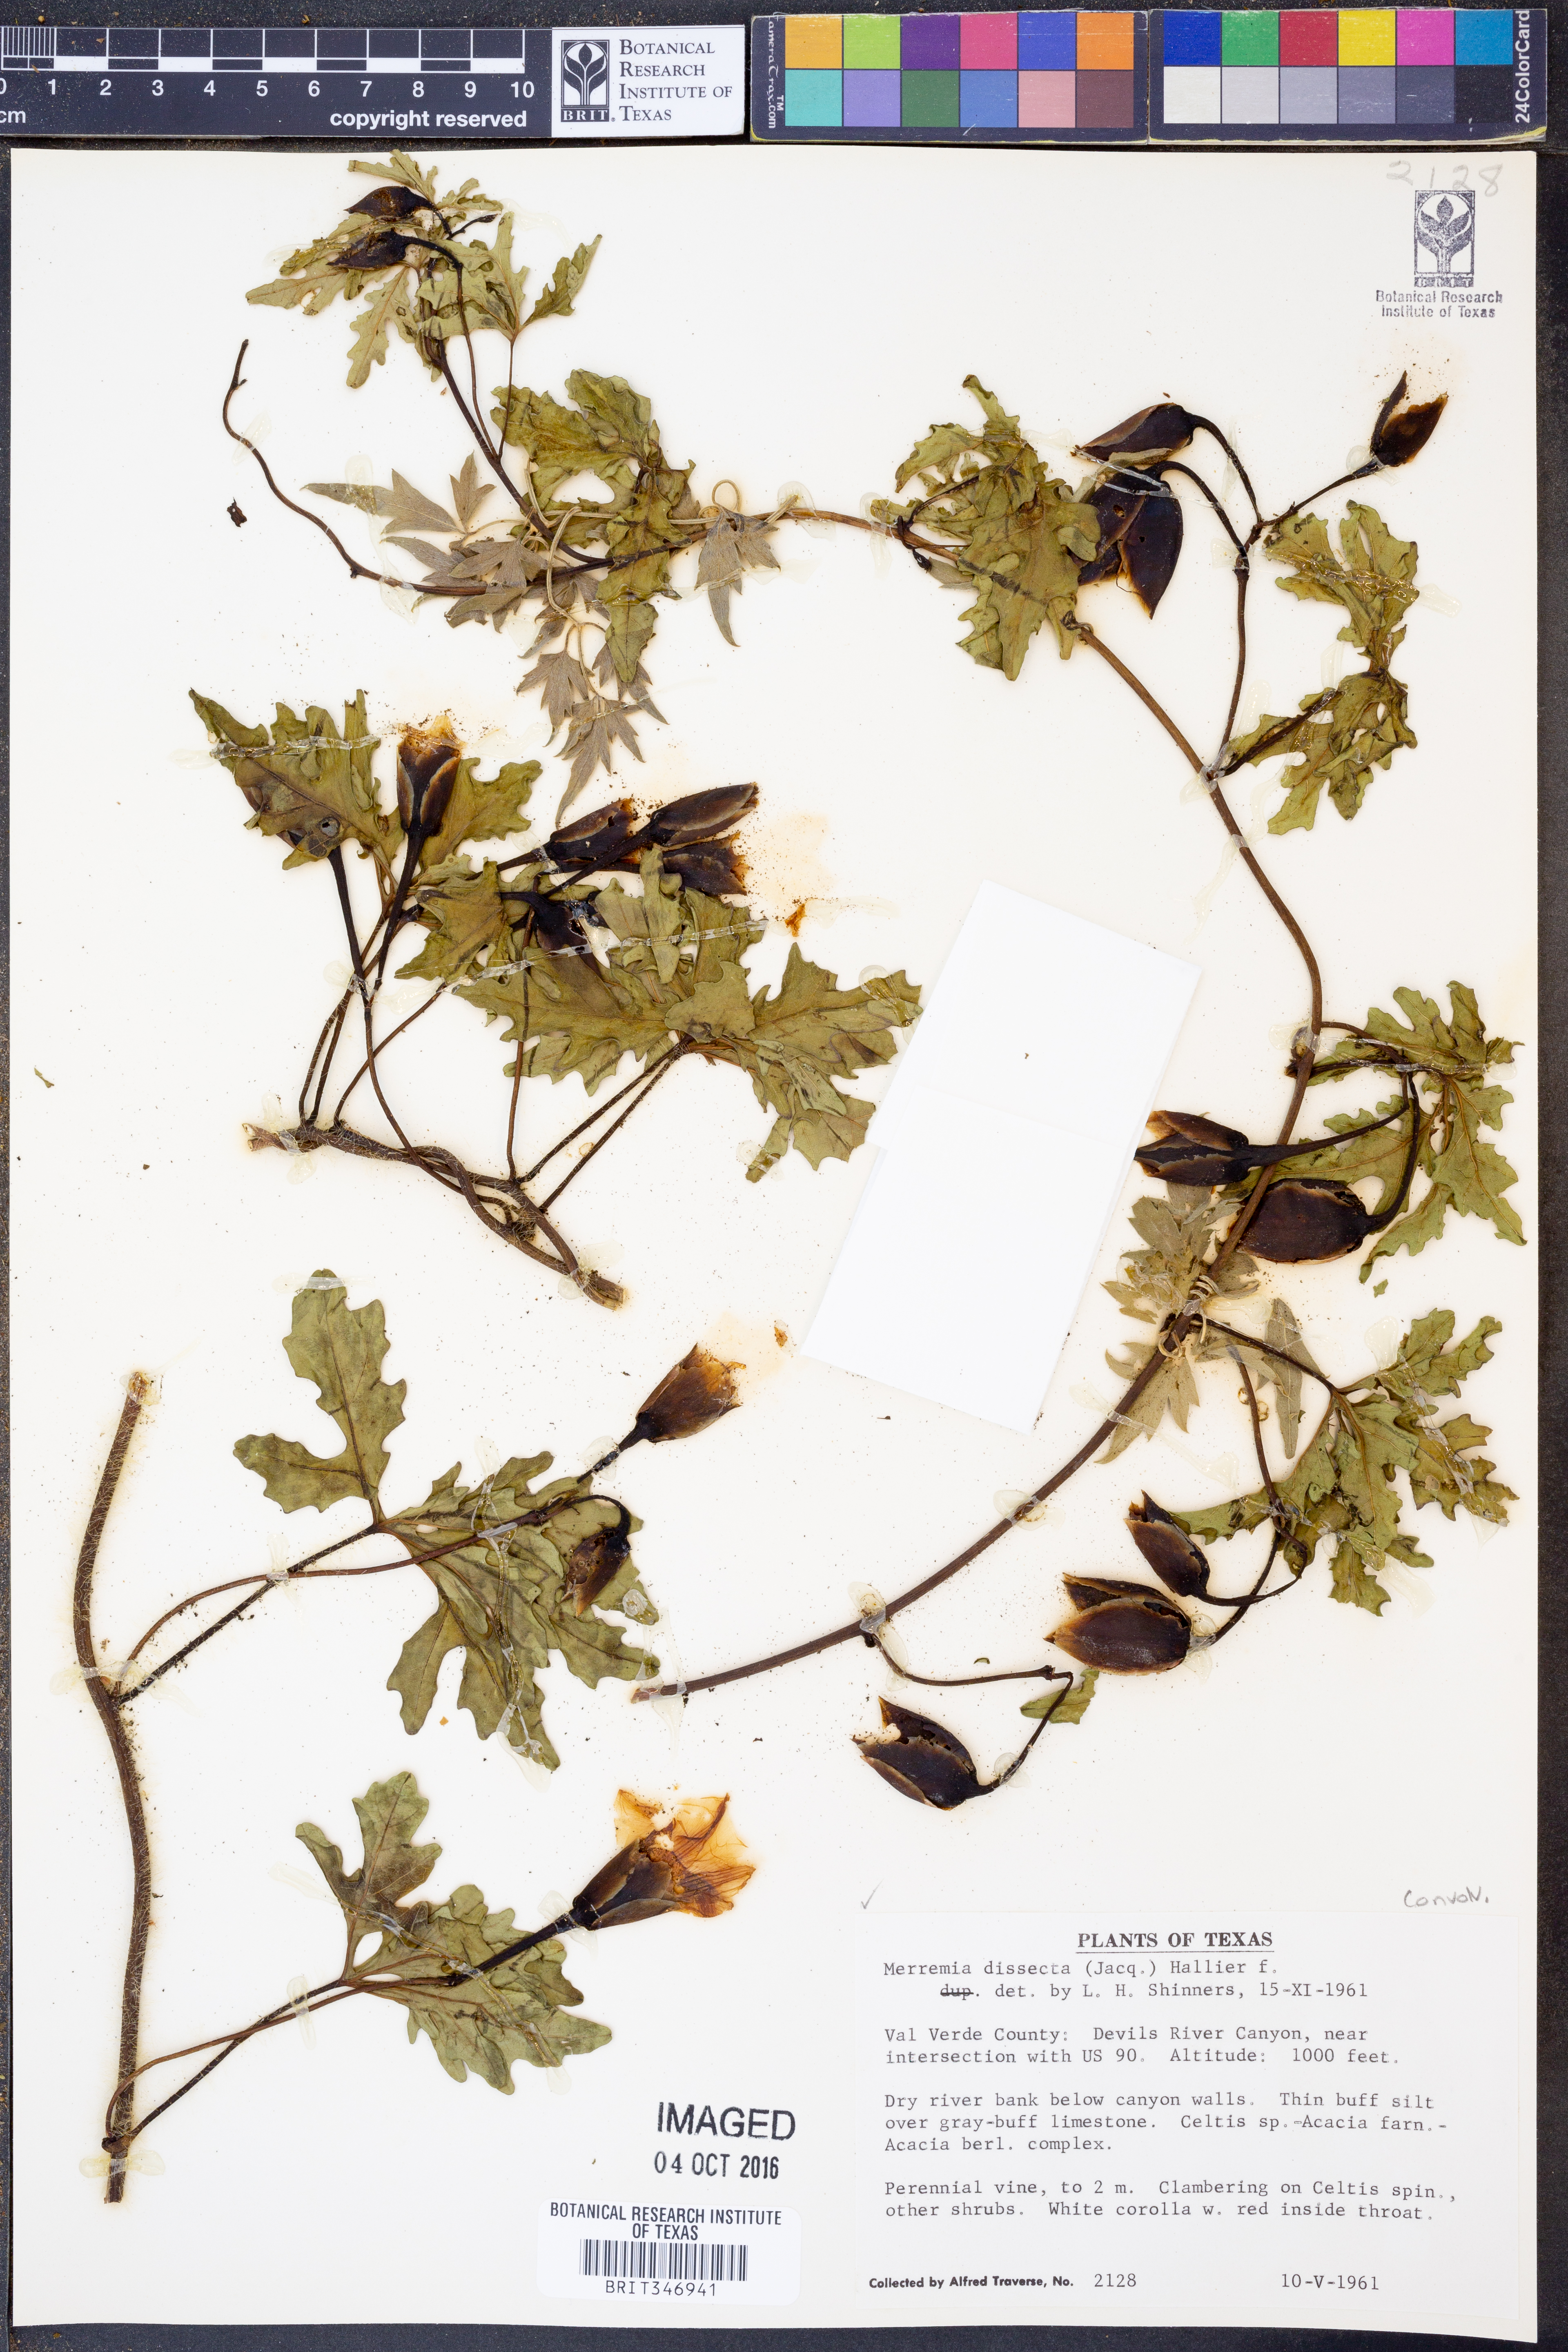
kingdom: Plantae
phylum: Tracheophyta
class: Magnoliopsida
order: Solanales
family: Convolvulaceae
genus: Distimake
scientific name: Distimake dissectus
